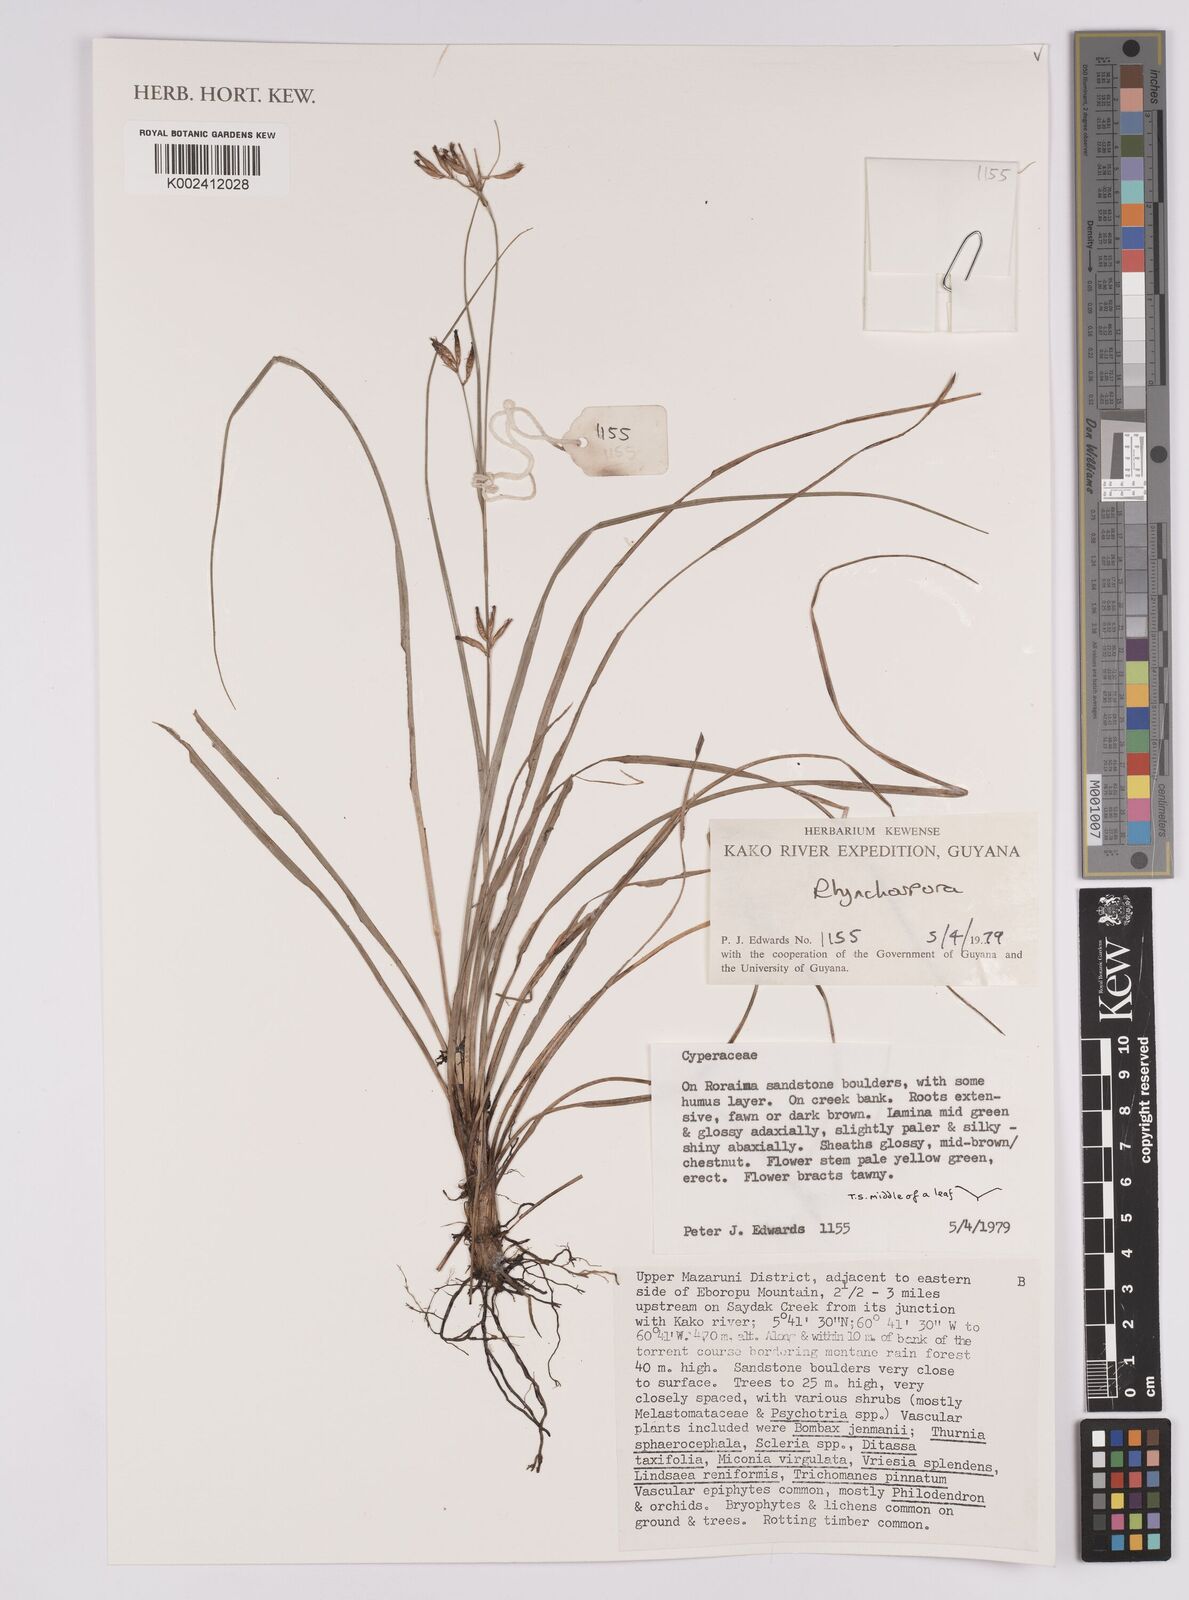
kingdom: Plantae
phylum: Tracheophyta
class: Liliopsida
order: Poales
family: Cyperaceae
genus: Rhynchospora
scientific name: Rhynchospora
